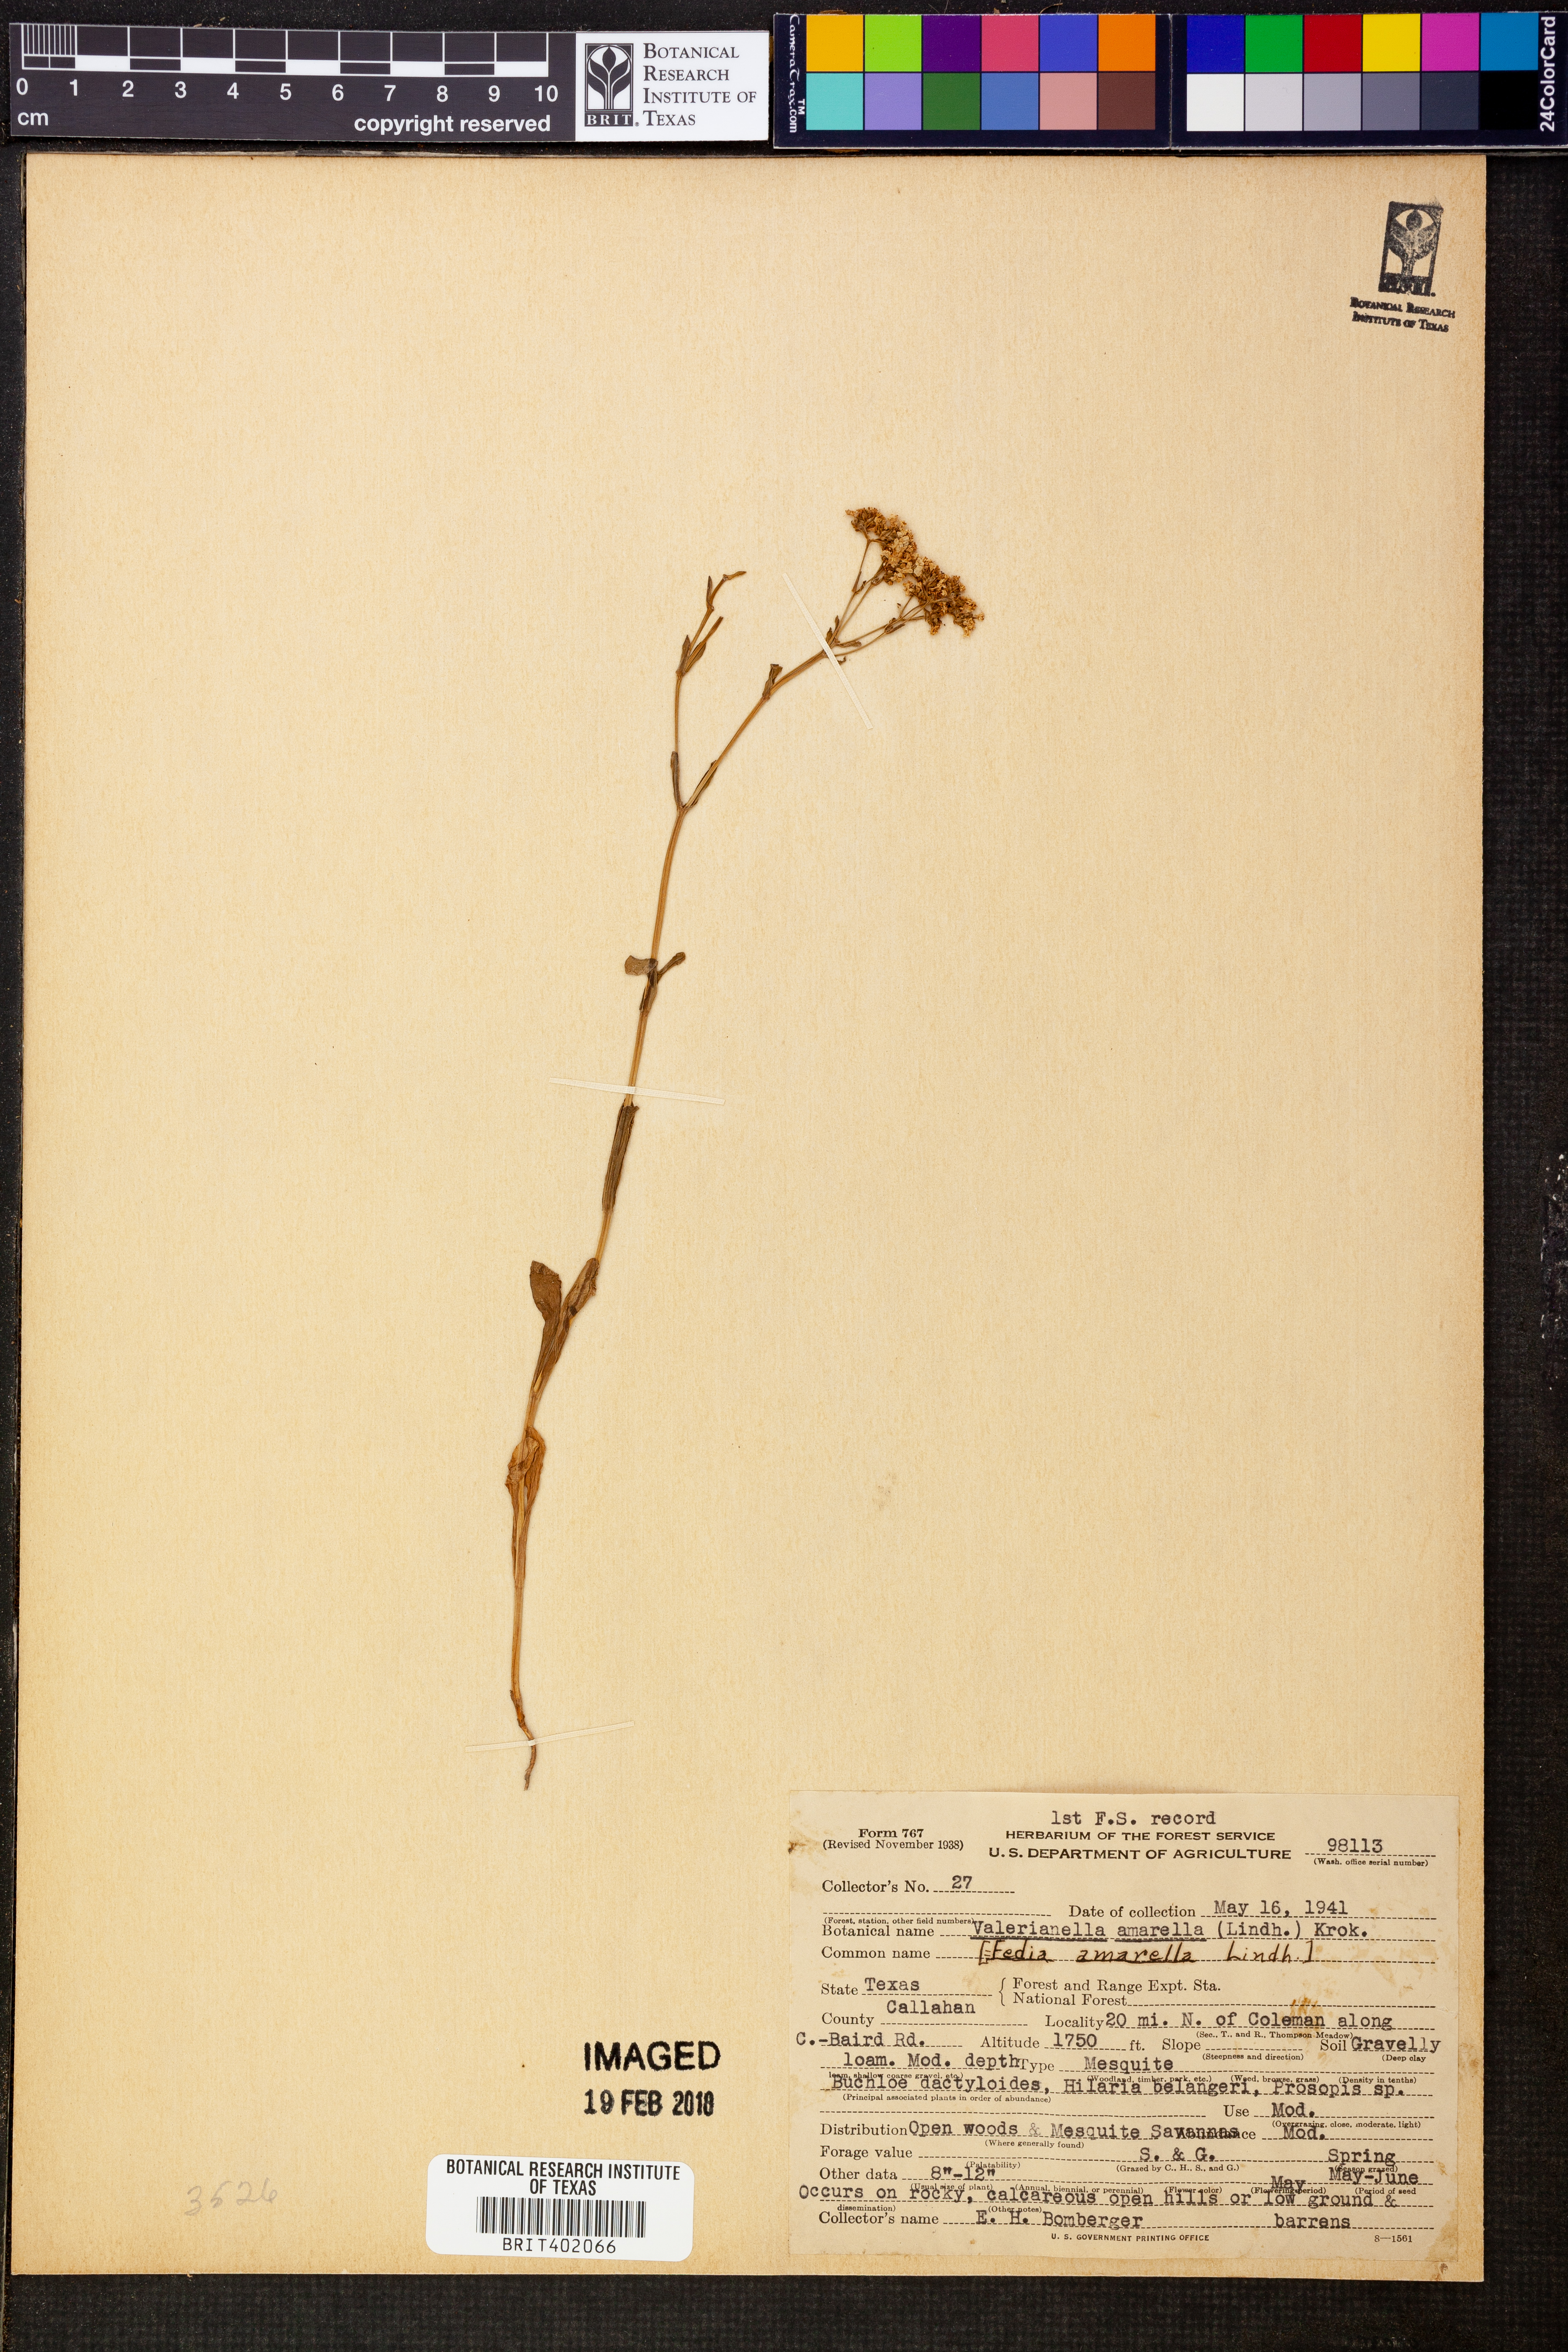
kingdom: Plantae
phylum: Tracheophyta
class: Magnoliopsida
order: Dipsacales
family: Caprifoliaceae
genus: Valerianella
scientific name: Valerianella amarella
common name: Hariy cornsalad
